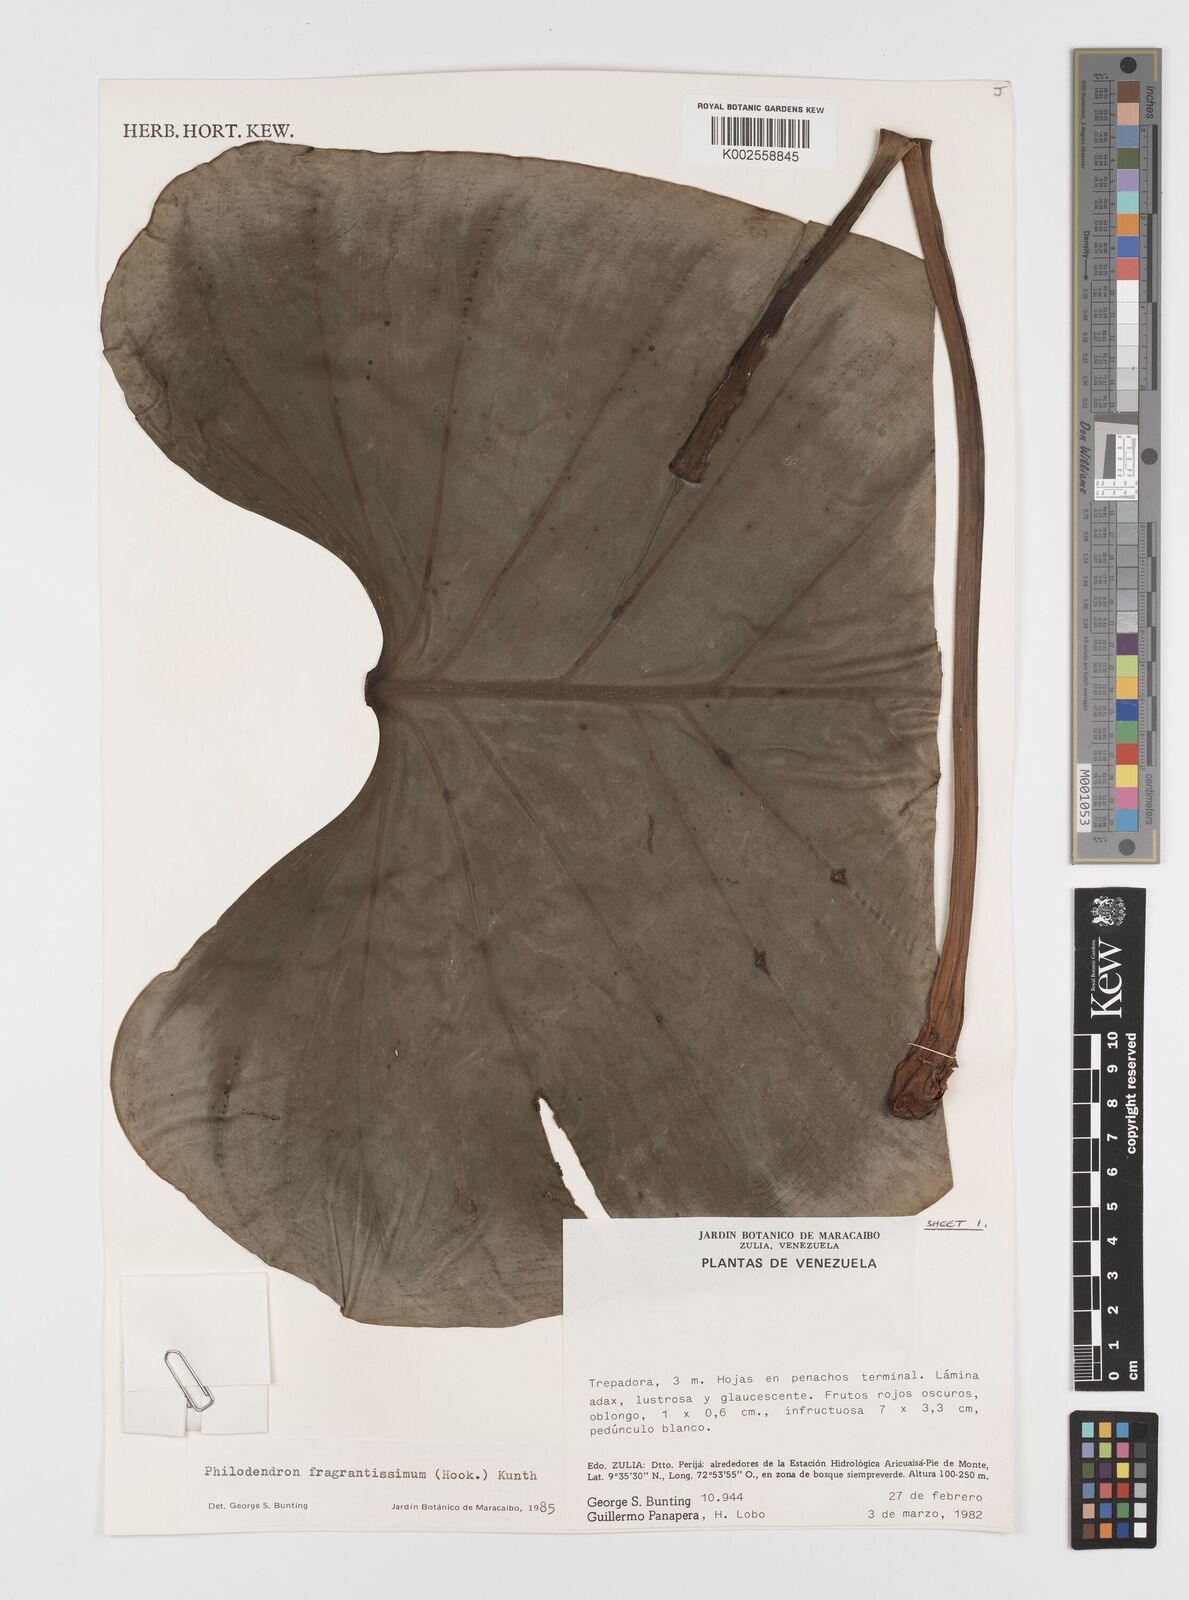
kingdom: Plantae
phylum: Tracheophyta
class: Liliopsida
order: Alismatales
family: Araceae
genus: Philodendron
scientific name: Philodendron fragrantissimum
